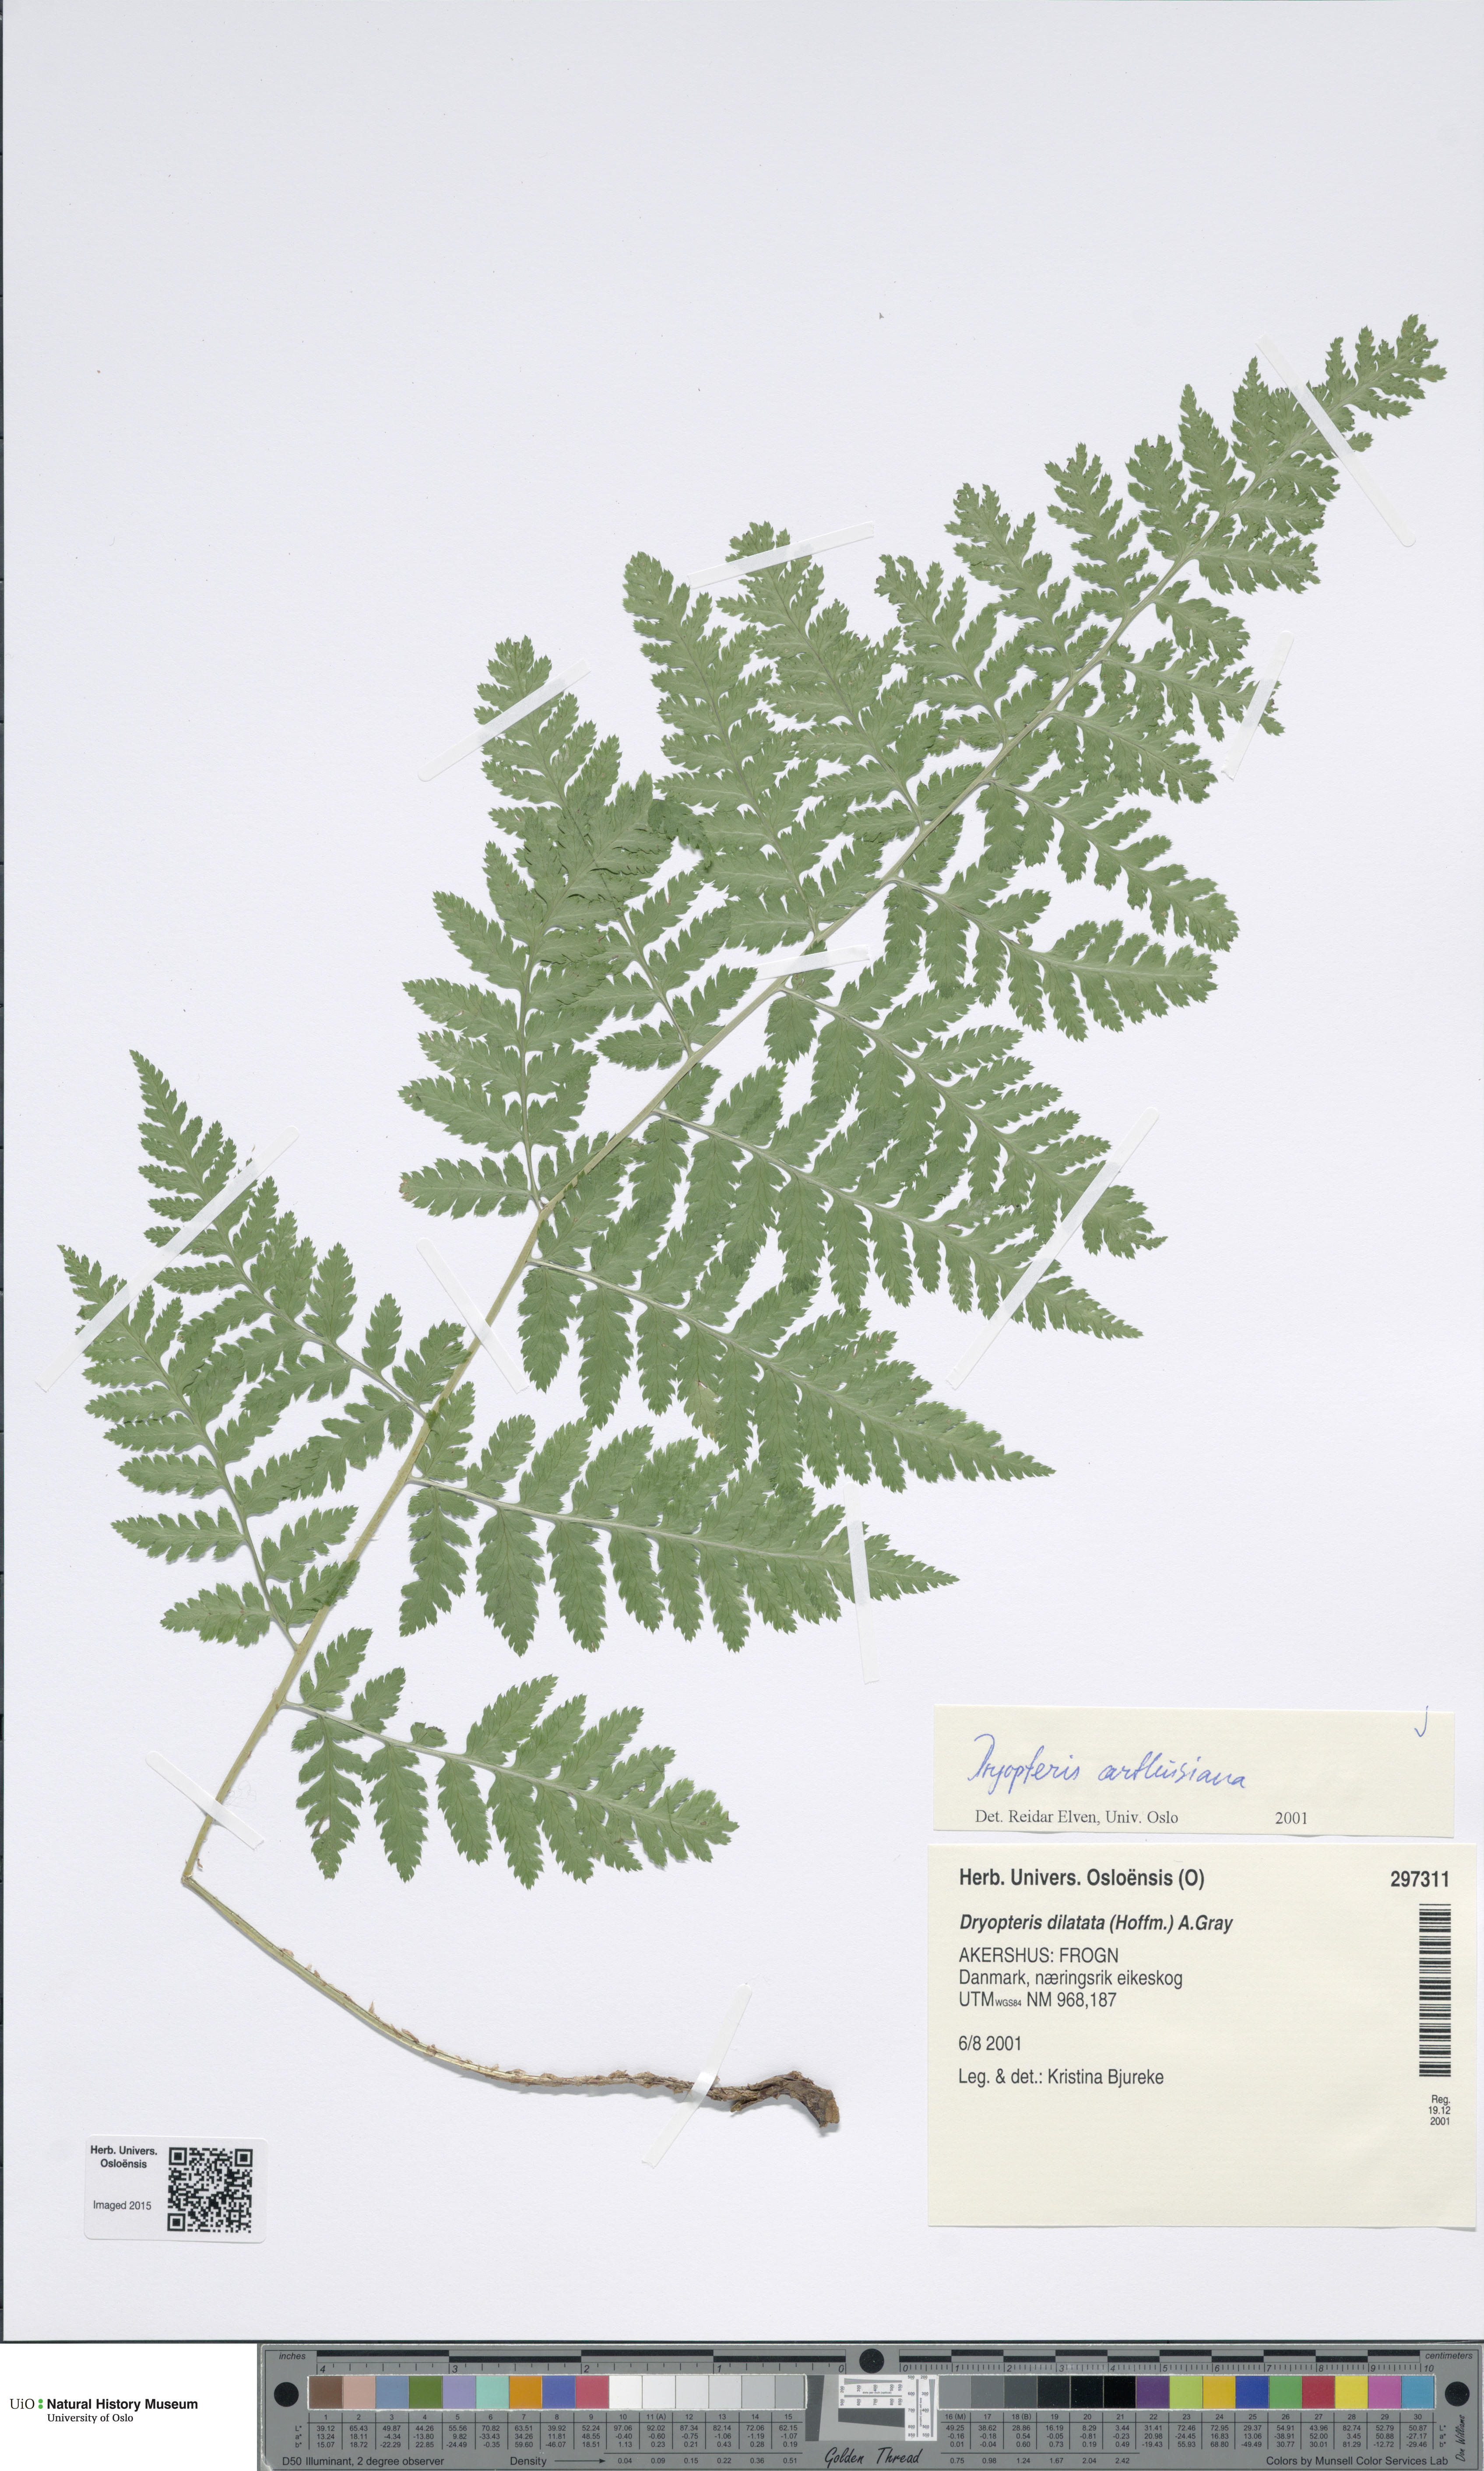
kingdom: Plantae
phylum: Tracheophyta
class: Polypodiopsida
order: Polypodiales
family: Dryopteridaceae
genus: Dryopteris
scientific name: Dryopteris carthusiana
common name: Narrow buckler-fern
